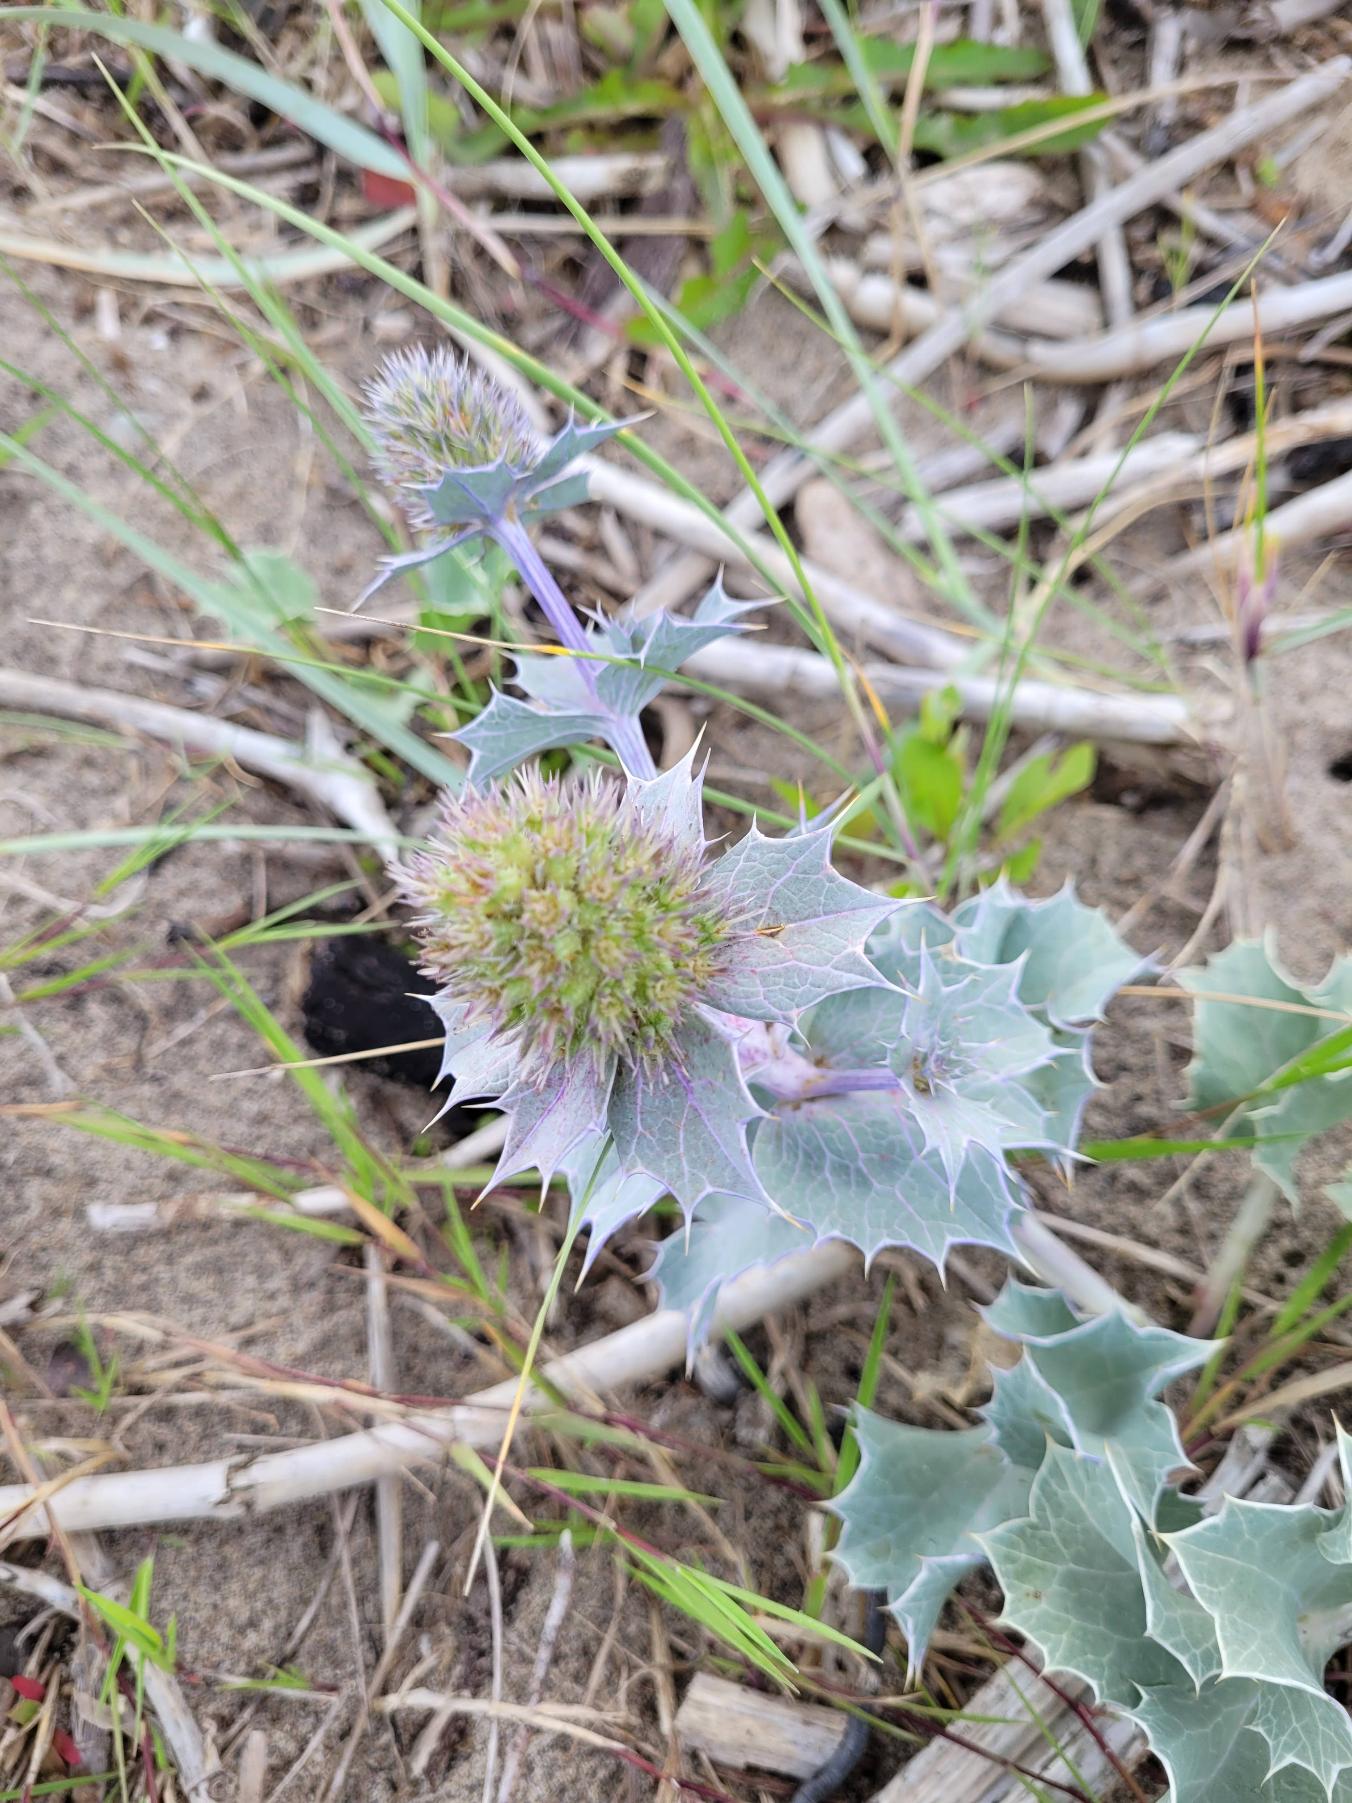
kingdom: Plantae
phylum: Tracheophyta
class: Magnoliopsida
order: Apiales
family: Apiaceae
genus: Eryngium
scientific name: Eryngium maritimum
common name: Strand-mandstro
